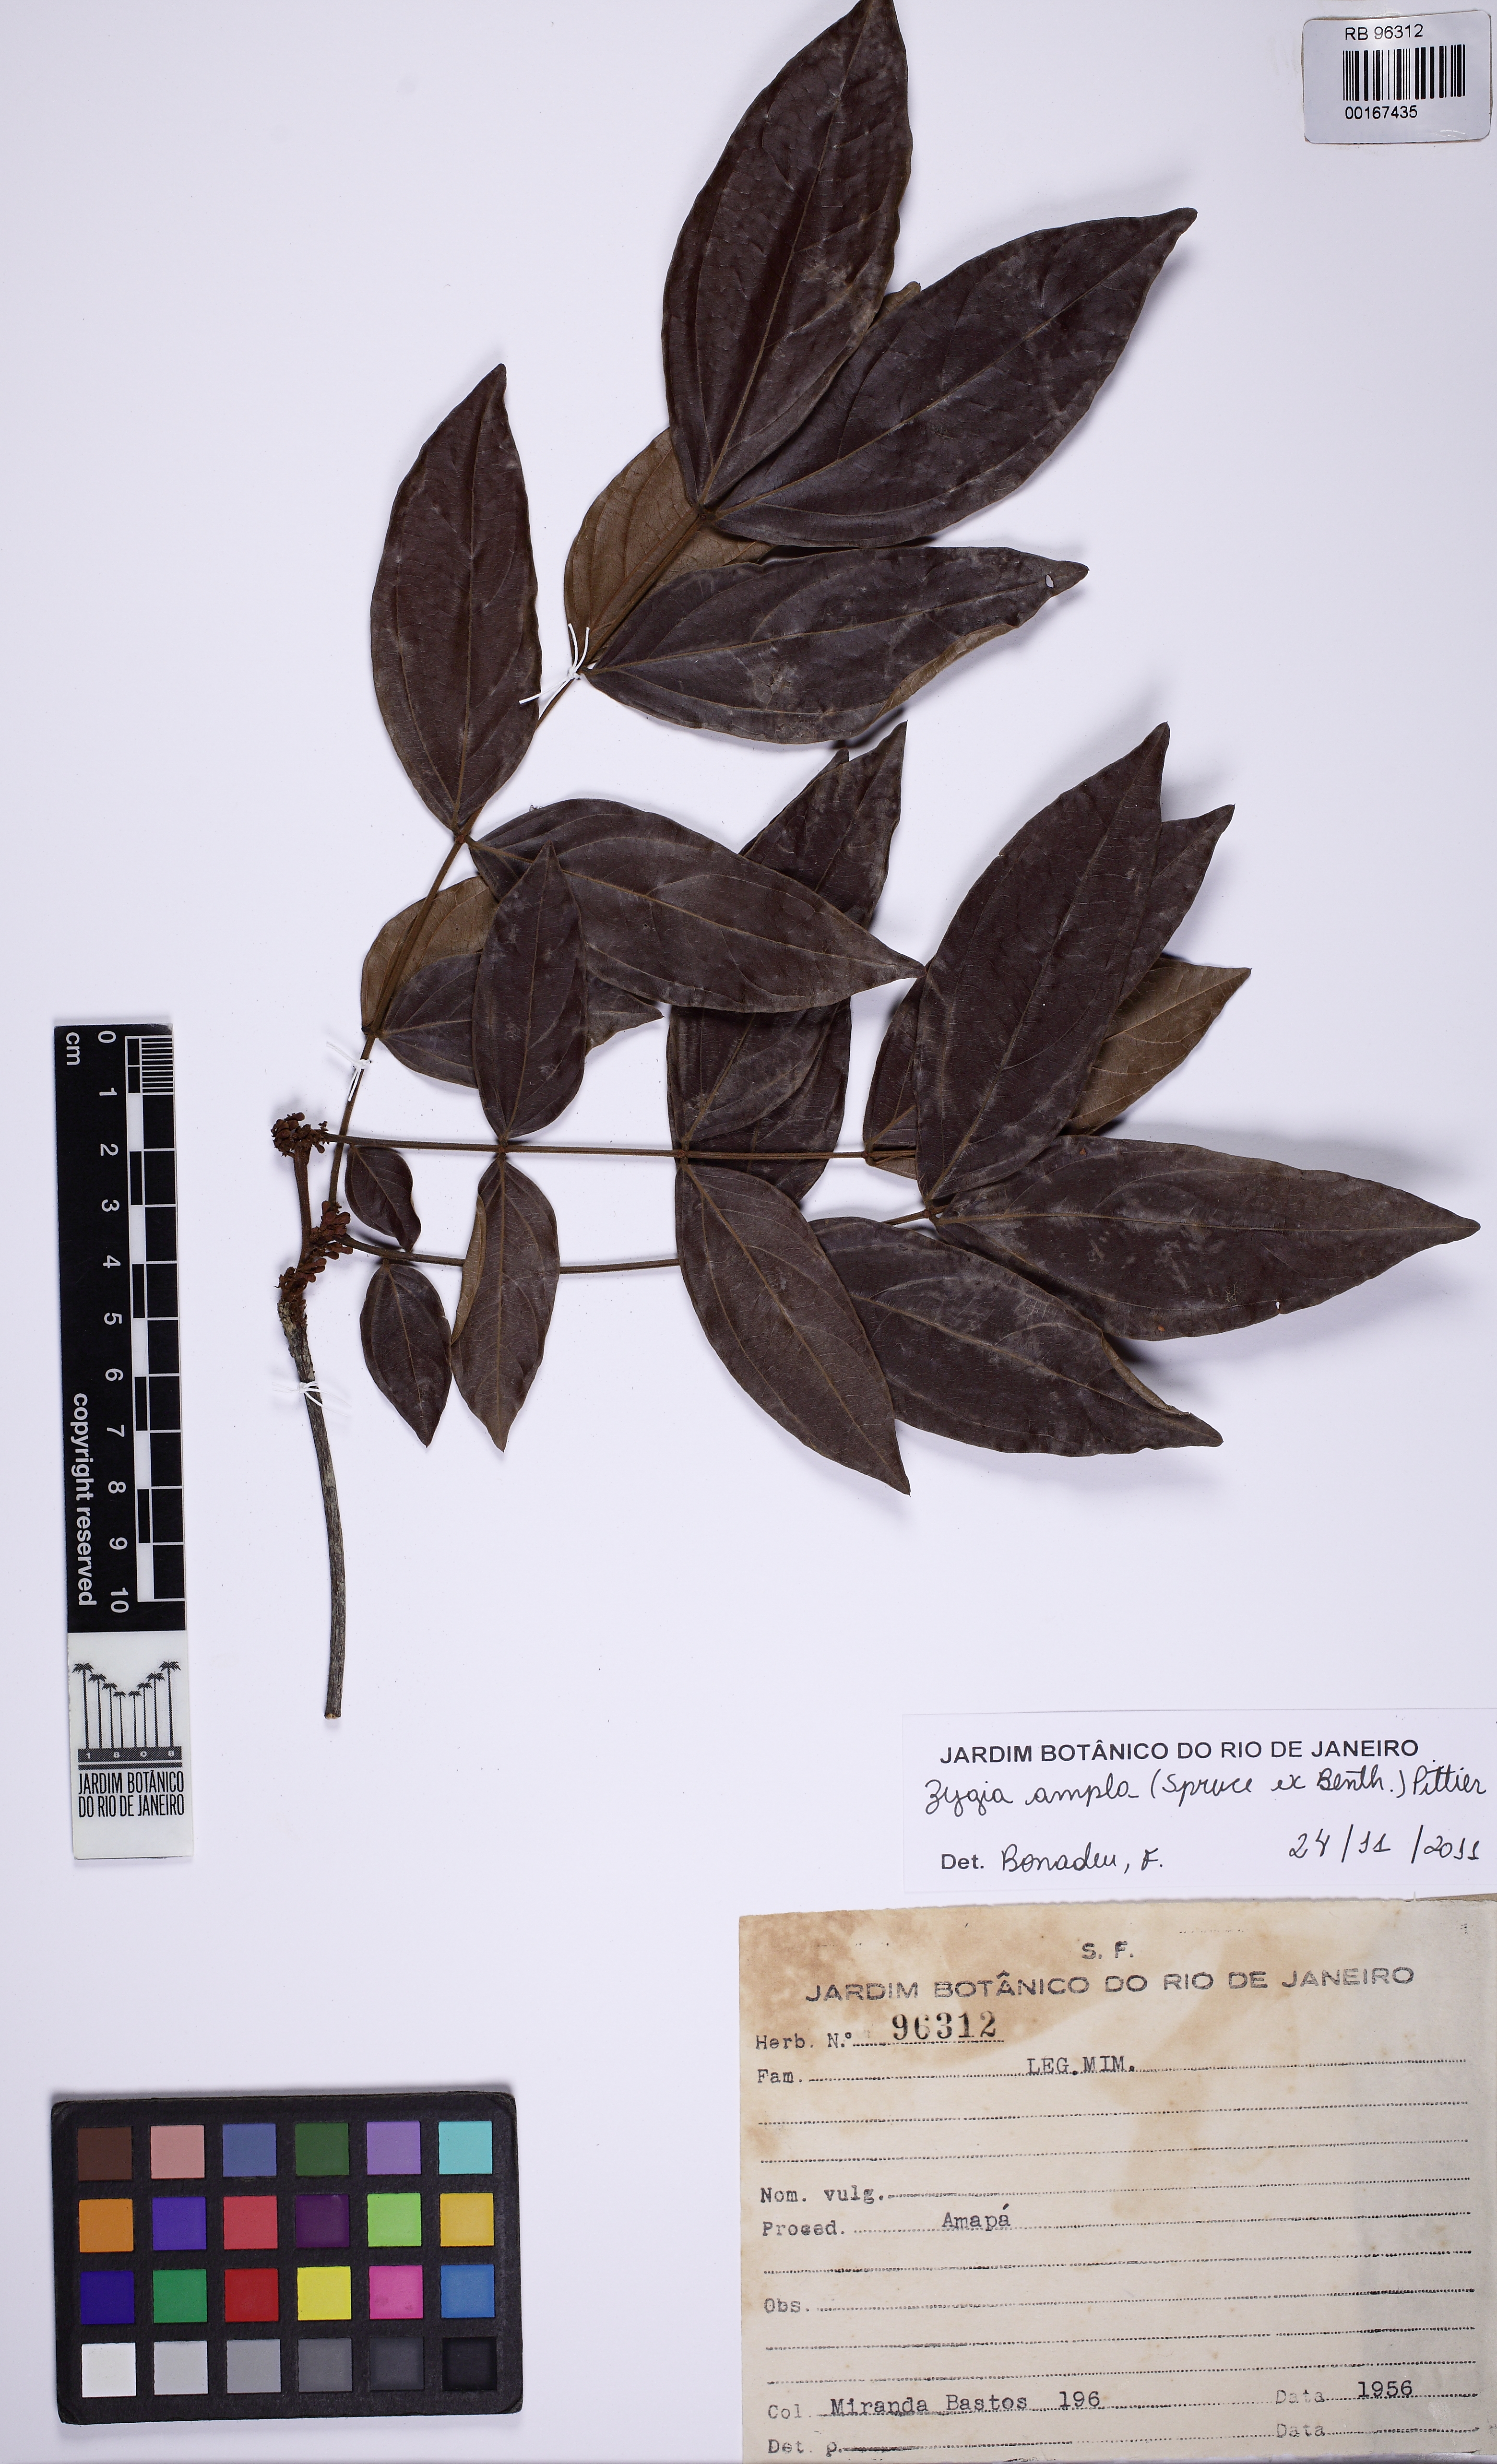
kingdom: Plantae
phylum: Tracheophyta
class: Magnoliopsida
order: Fabales
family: Fabaceae
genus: Zygia
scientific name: Zygia ampla
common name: Jarendeua de sapo
